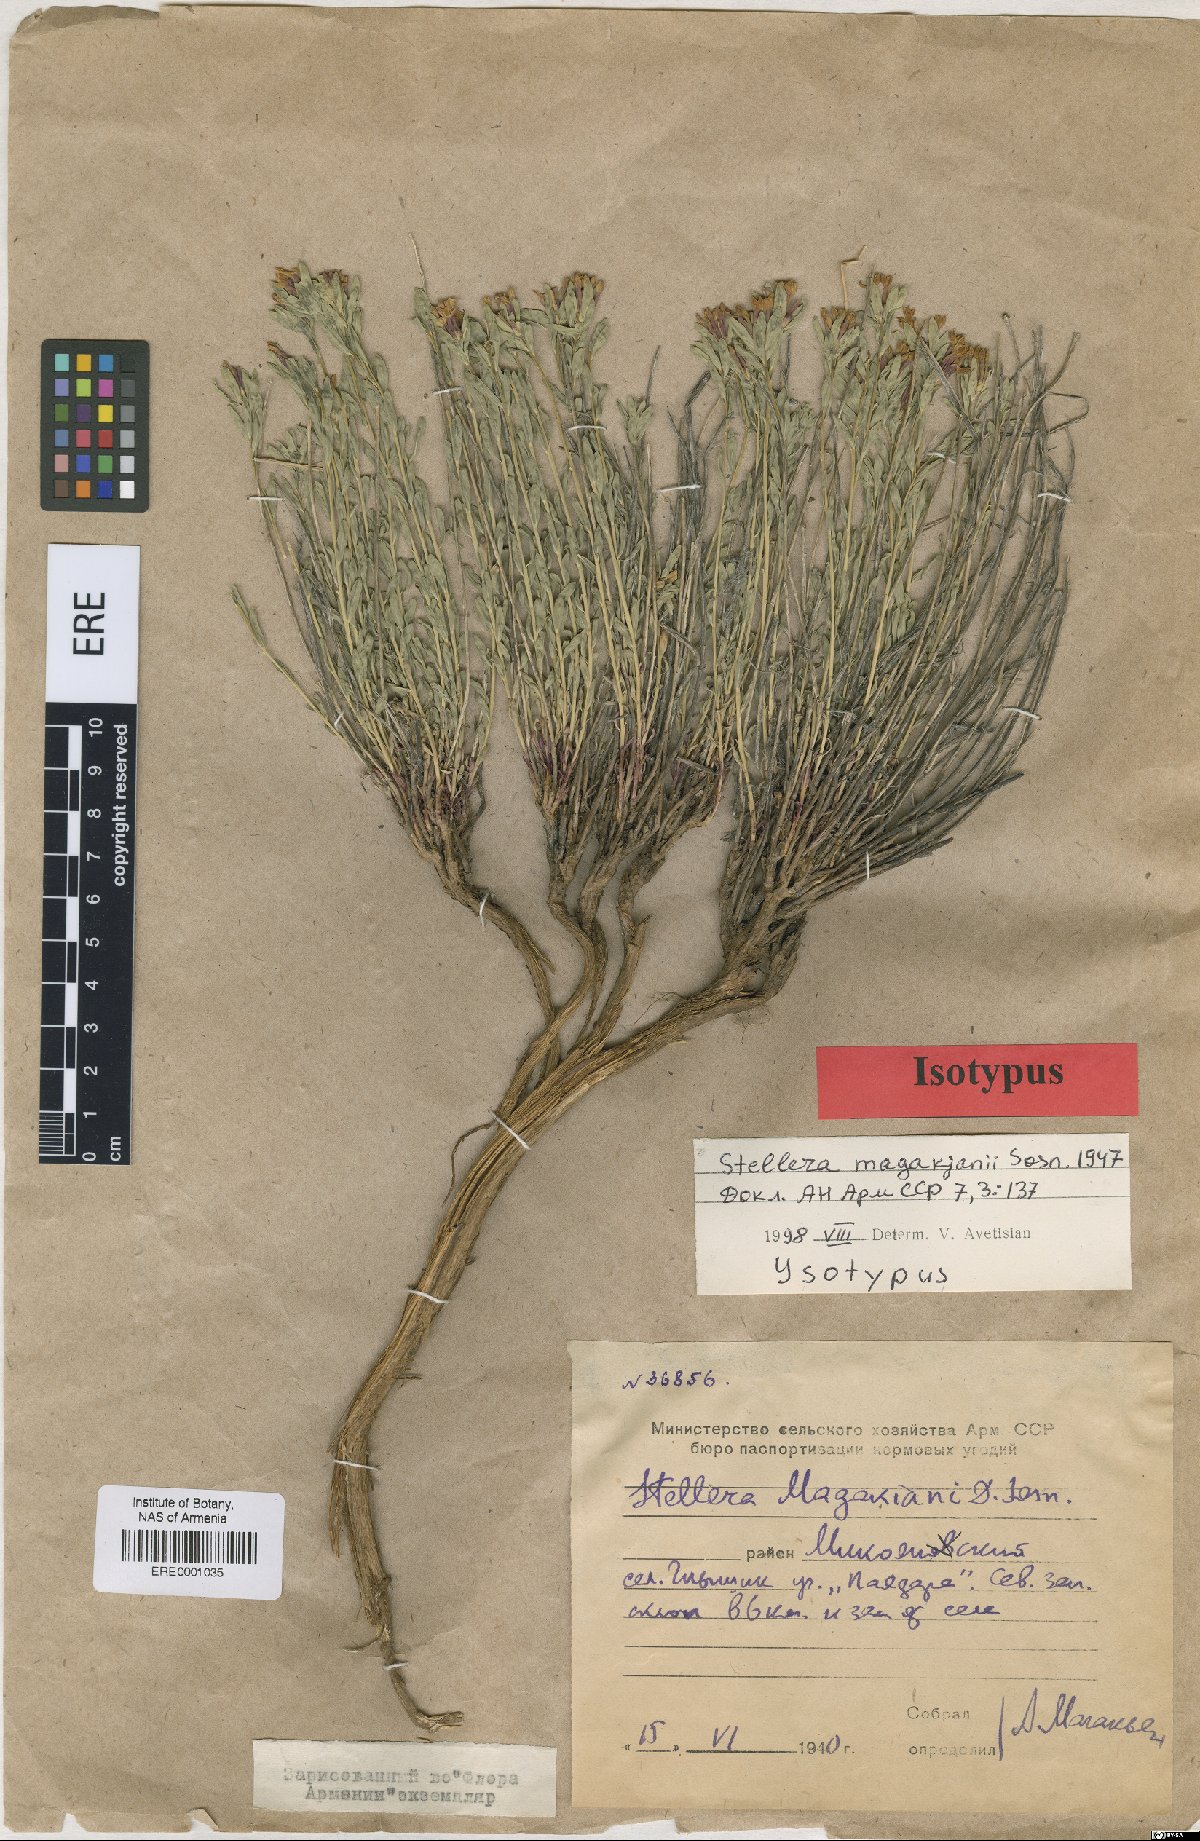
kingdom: Plantae
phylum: Tracheophyta
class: Magnoliopsida
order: Malvales
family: Thymelaeaceae
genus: Diarthron
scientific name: Diarthron magakjanii
